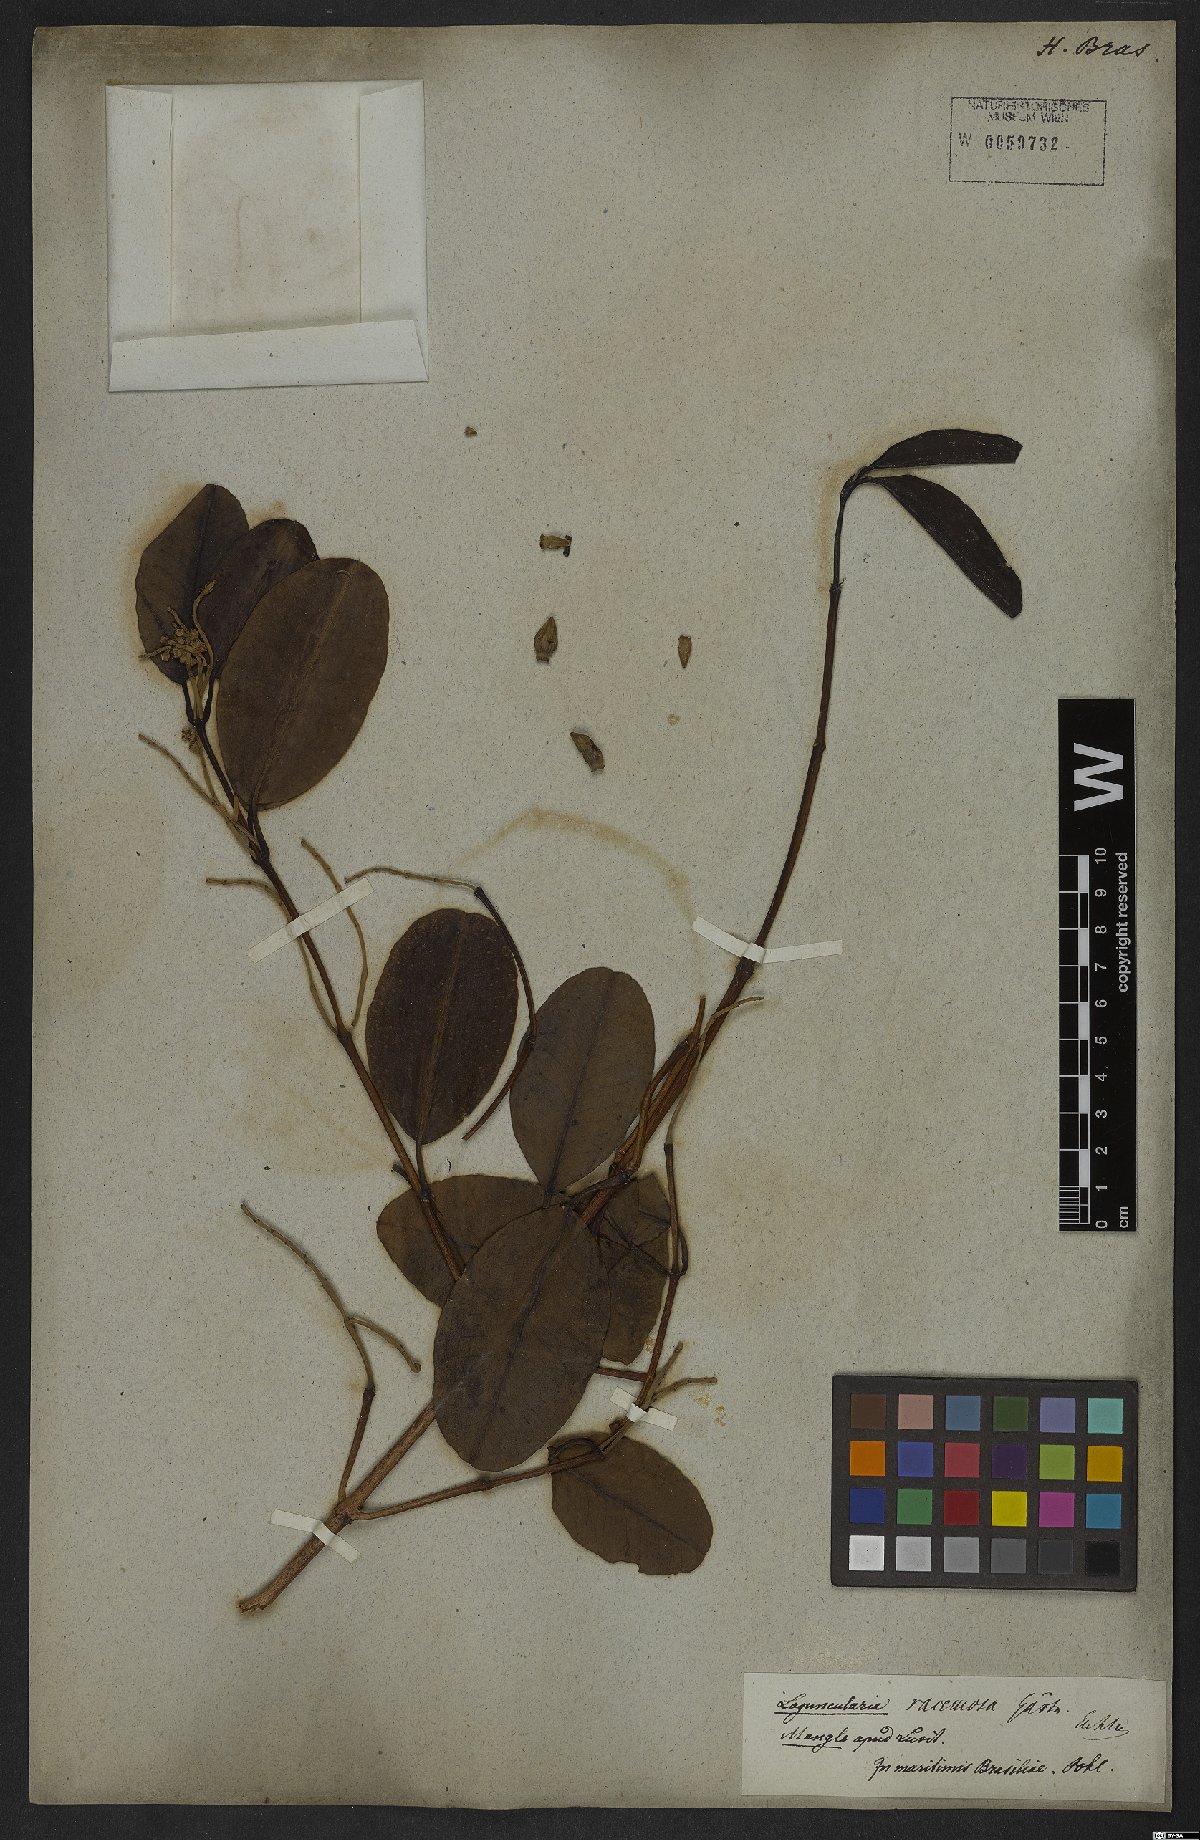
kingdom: Plantae
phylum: Tracheophyta
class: Magnoliopsida
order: Myrtales
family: Combretaceae
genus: Laguncularia
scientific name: Laguncularia racemosa
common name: White mangrove
